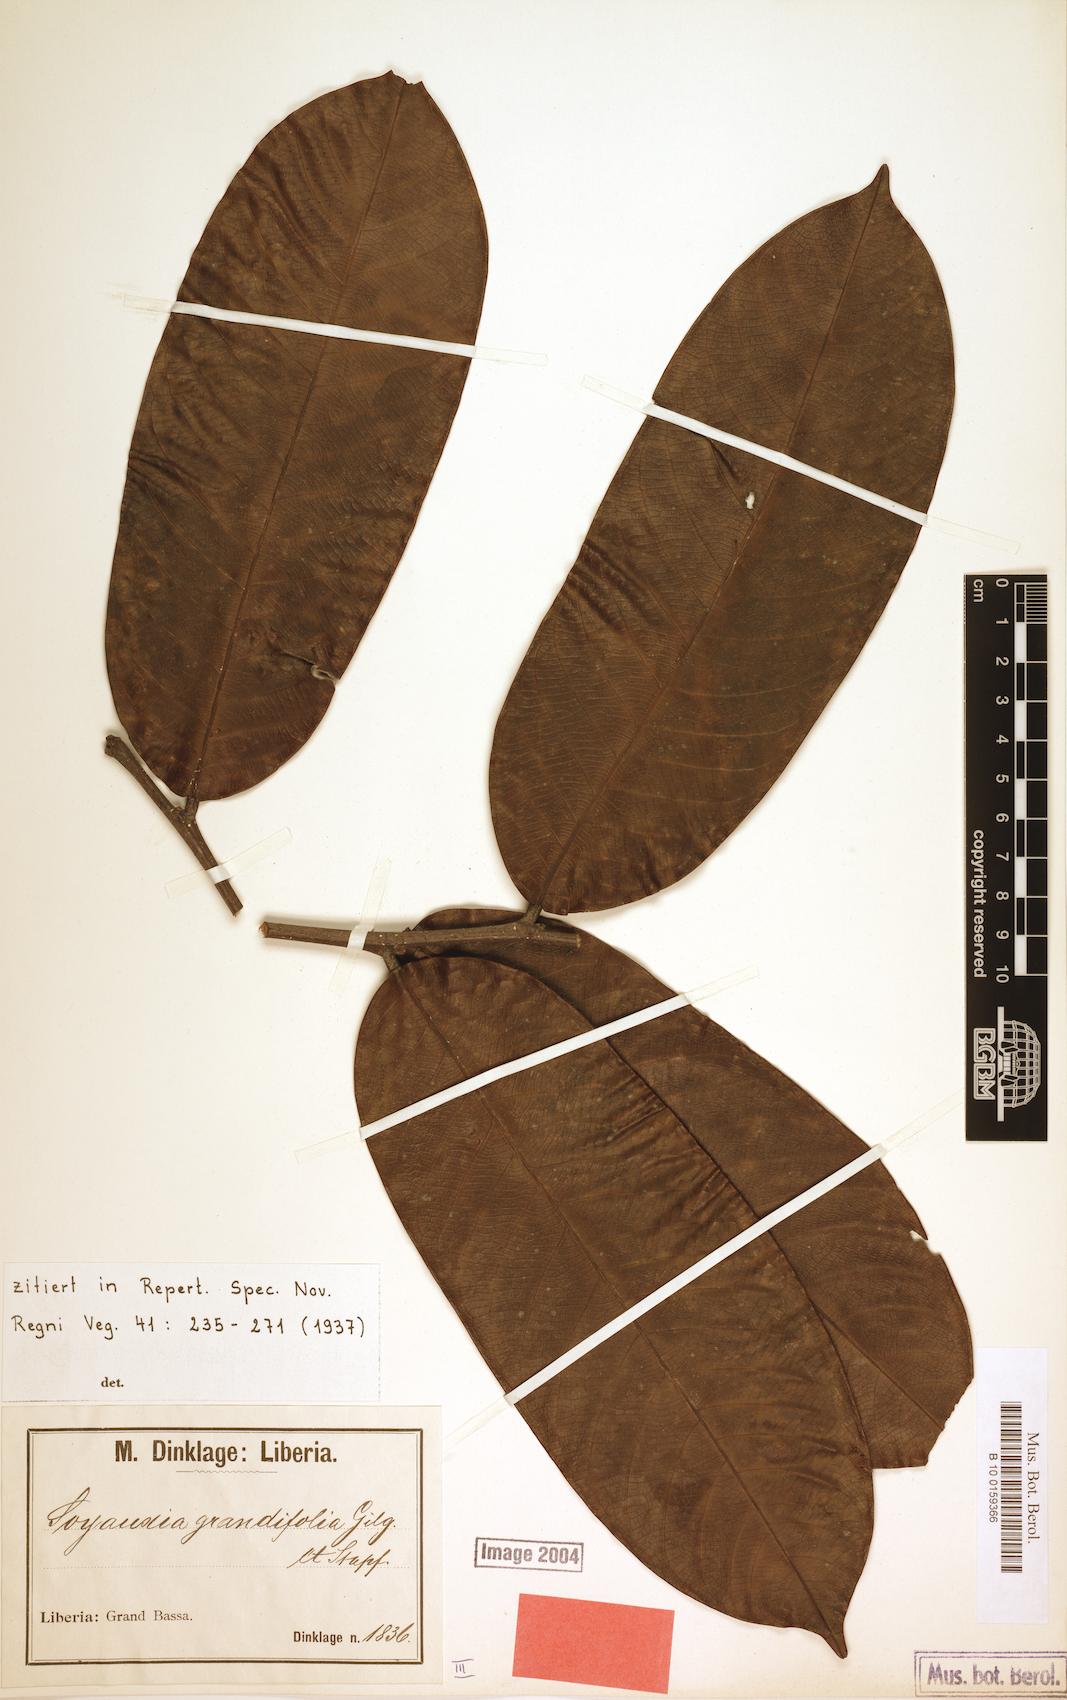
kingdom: Plantae
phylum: Tracheophyta
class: Magnoliopsida
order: Saxifragales
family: Peridiscaceae
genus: Soyauxia
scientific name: Soyauxia grandifolia
